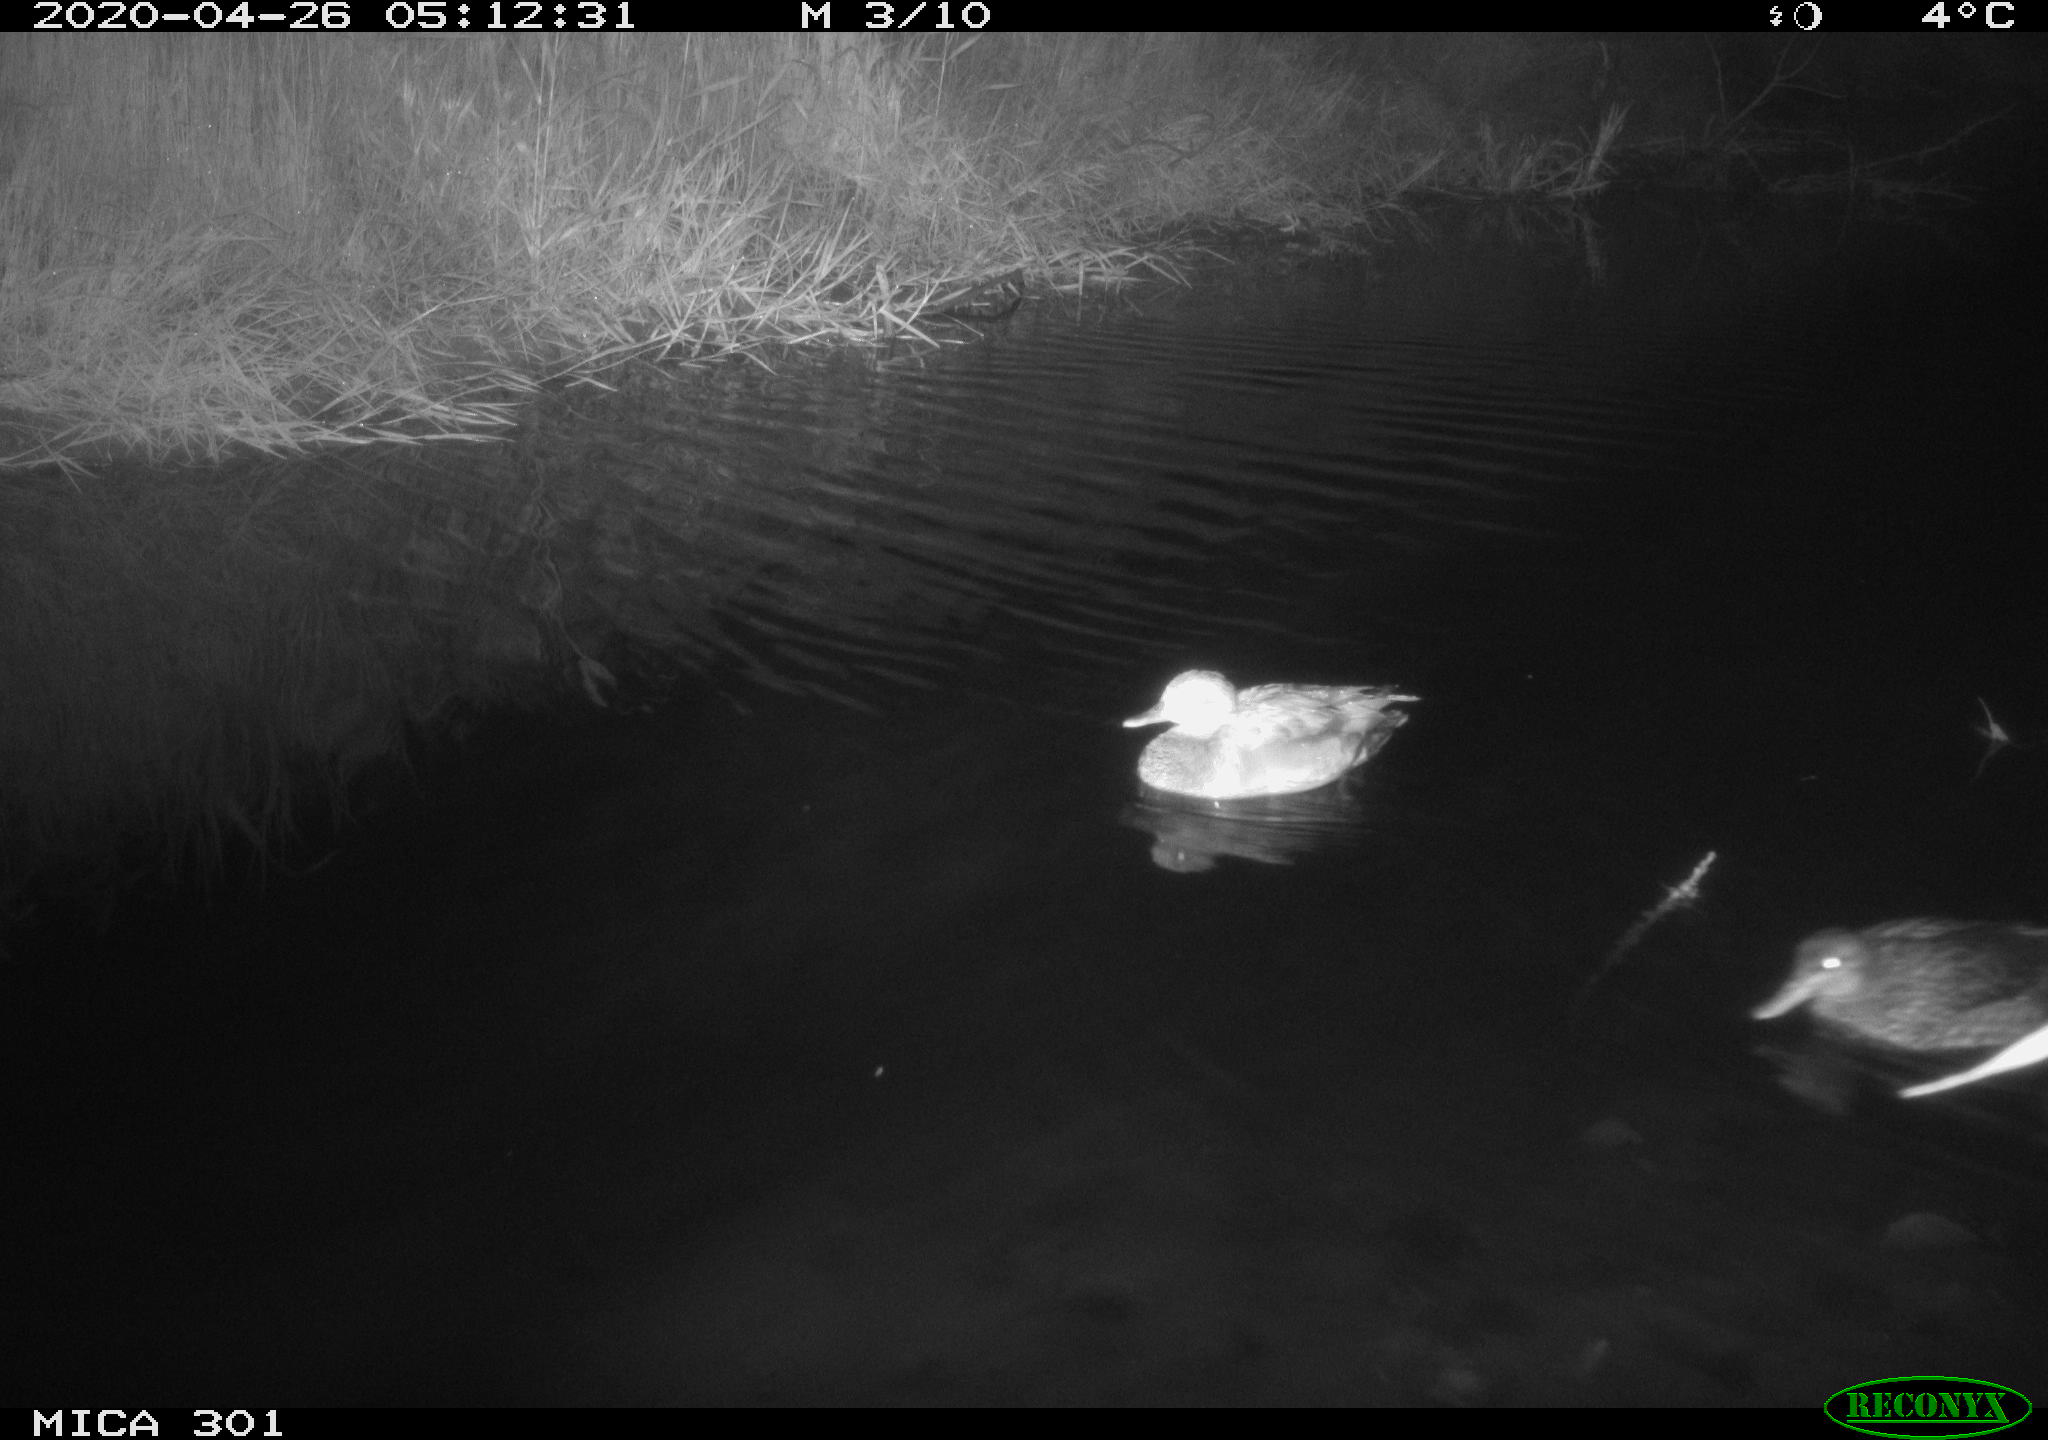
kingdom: Animalia
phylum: Chordata
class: Aves
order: Anseriformes
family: Anatidae
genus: Mareca
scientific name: Mareca strepera
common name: Gadwall
